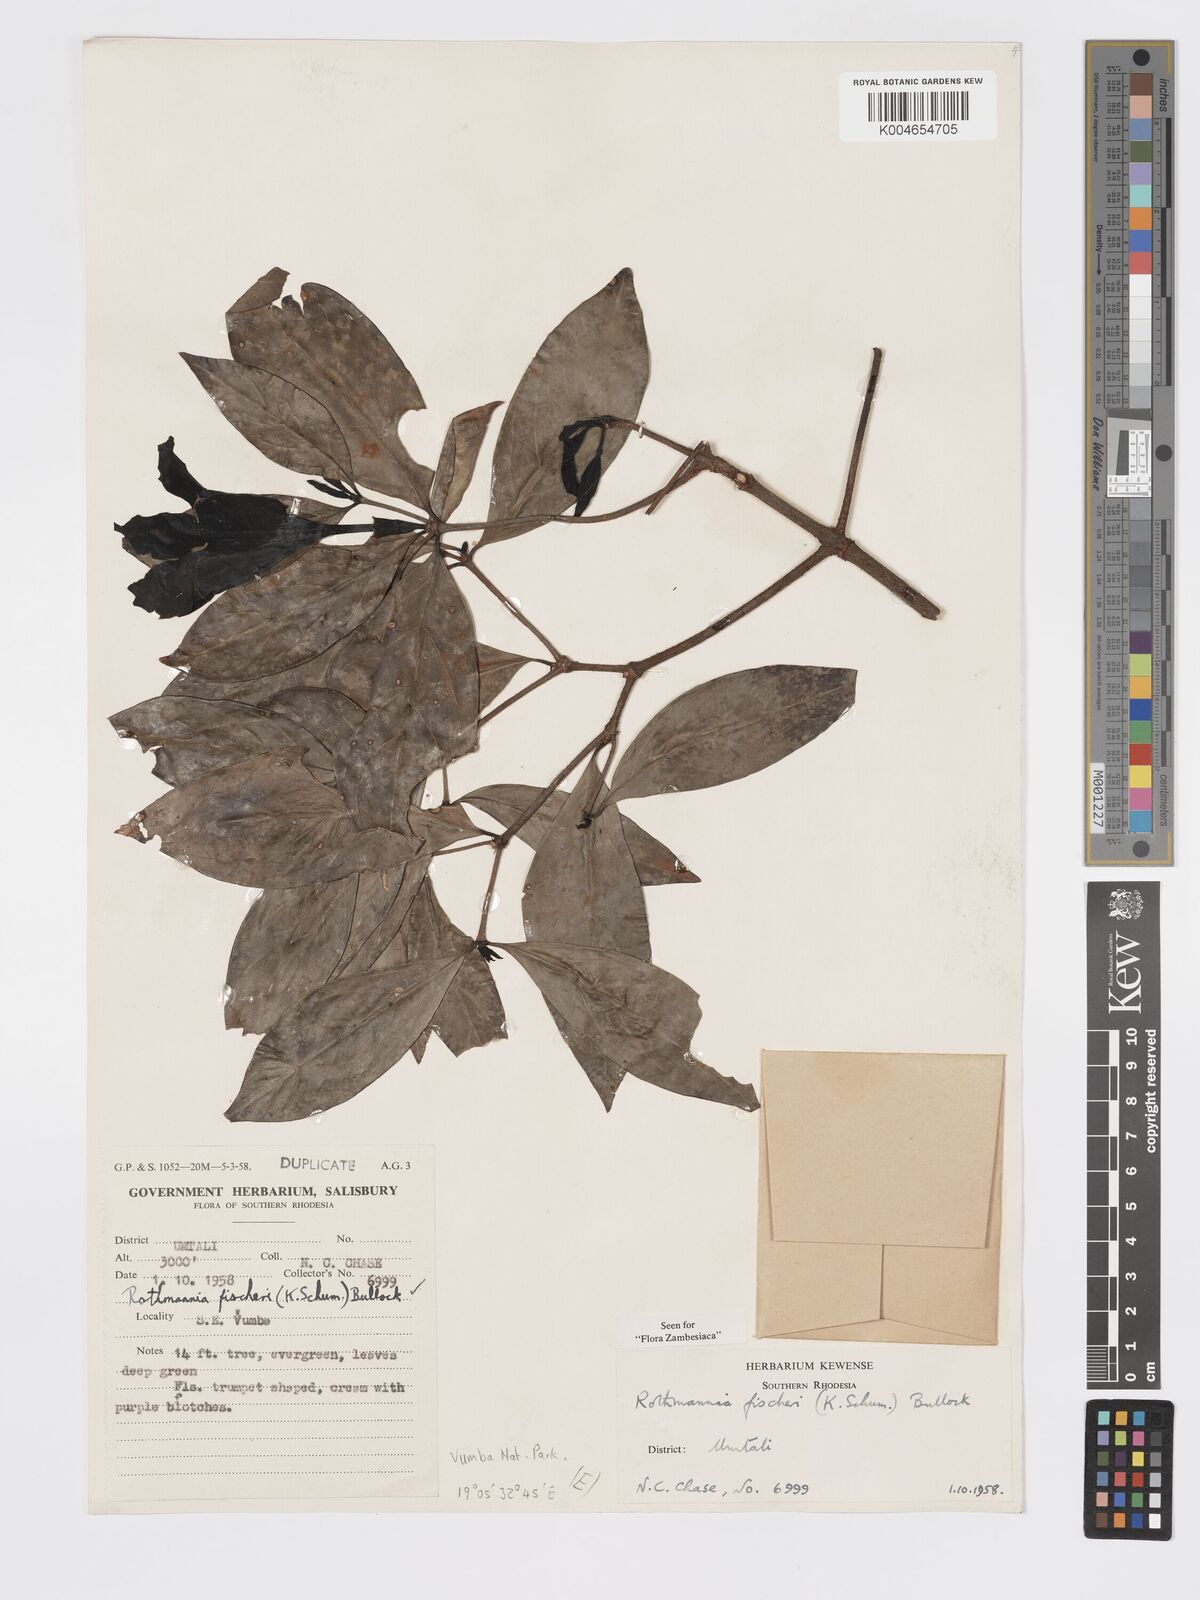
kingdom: Plantae
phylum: Tracheophyta
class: Magnoliopsida
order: Gentianales
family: Rubiaceae
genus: Rothmannia
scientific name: Rothmannia fischeri
